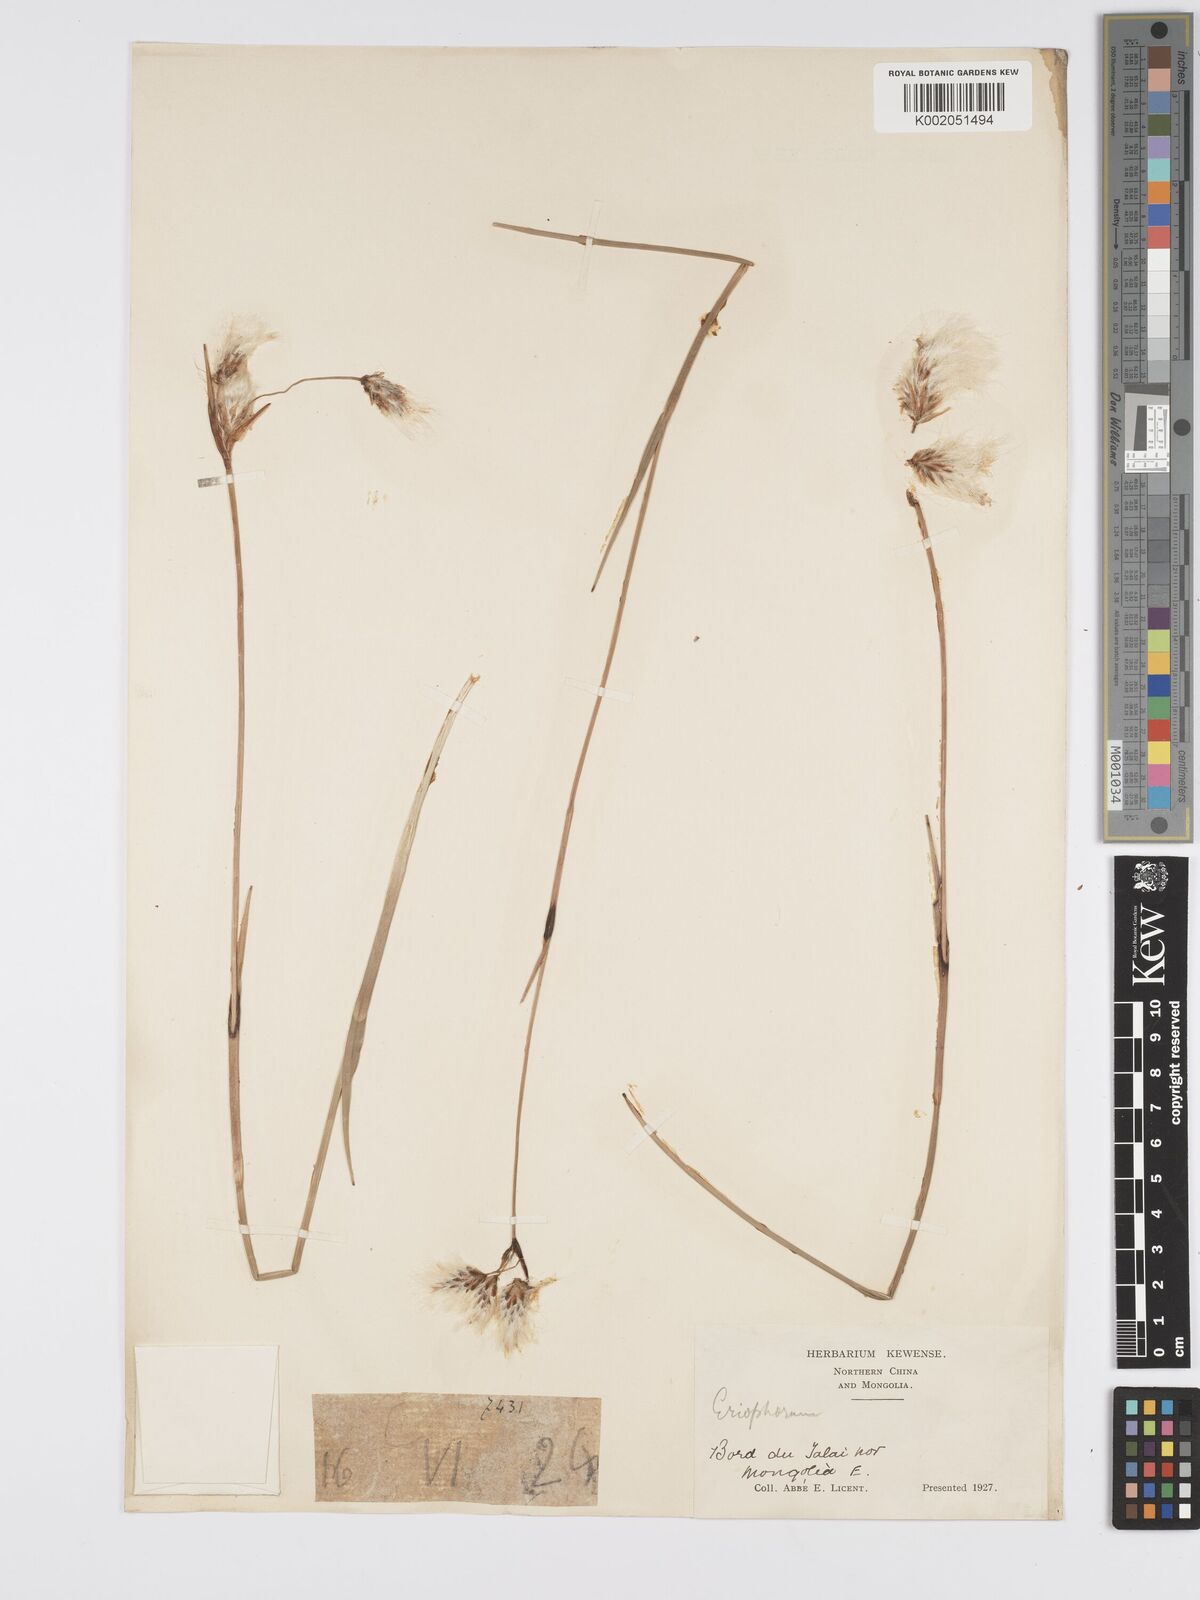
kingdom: Plantae
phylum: Tracheophyta
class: Liliopsida
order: Poales
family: Cyperaceae
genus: Eriophorum
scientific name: Eriophorum
